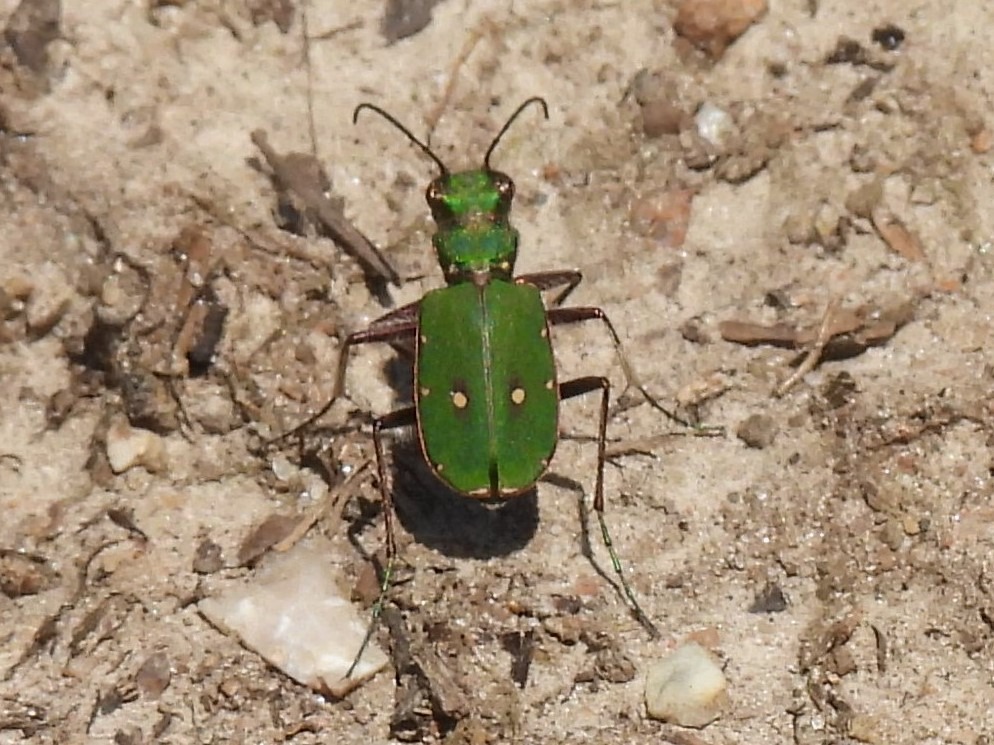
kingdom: Animalia
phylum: Arthropoda
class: Insecta
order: Coleoptera
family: Carabidae
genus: Cicindela
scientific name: Cicindela campestris
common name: Grøn sandspringer
